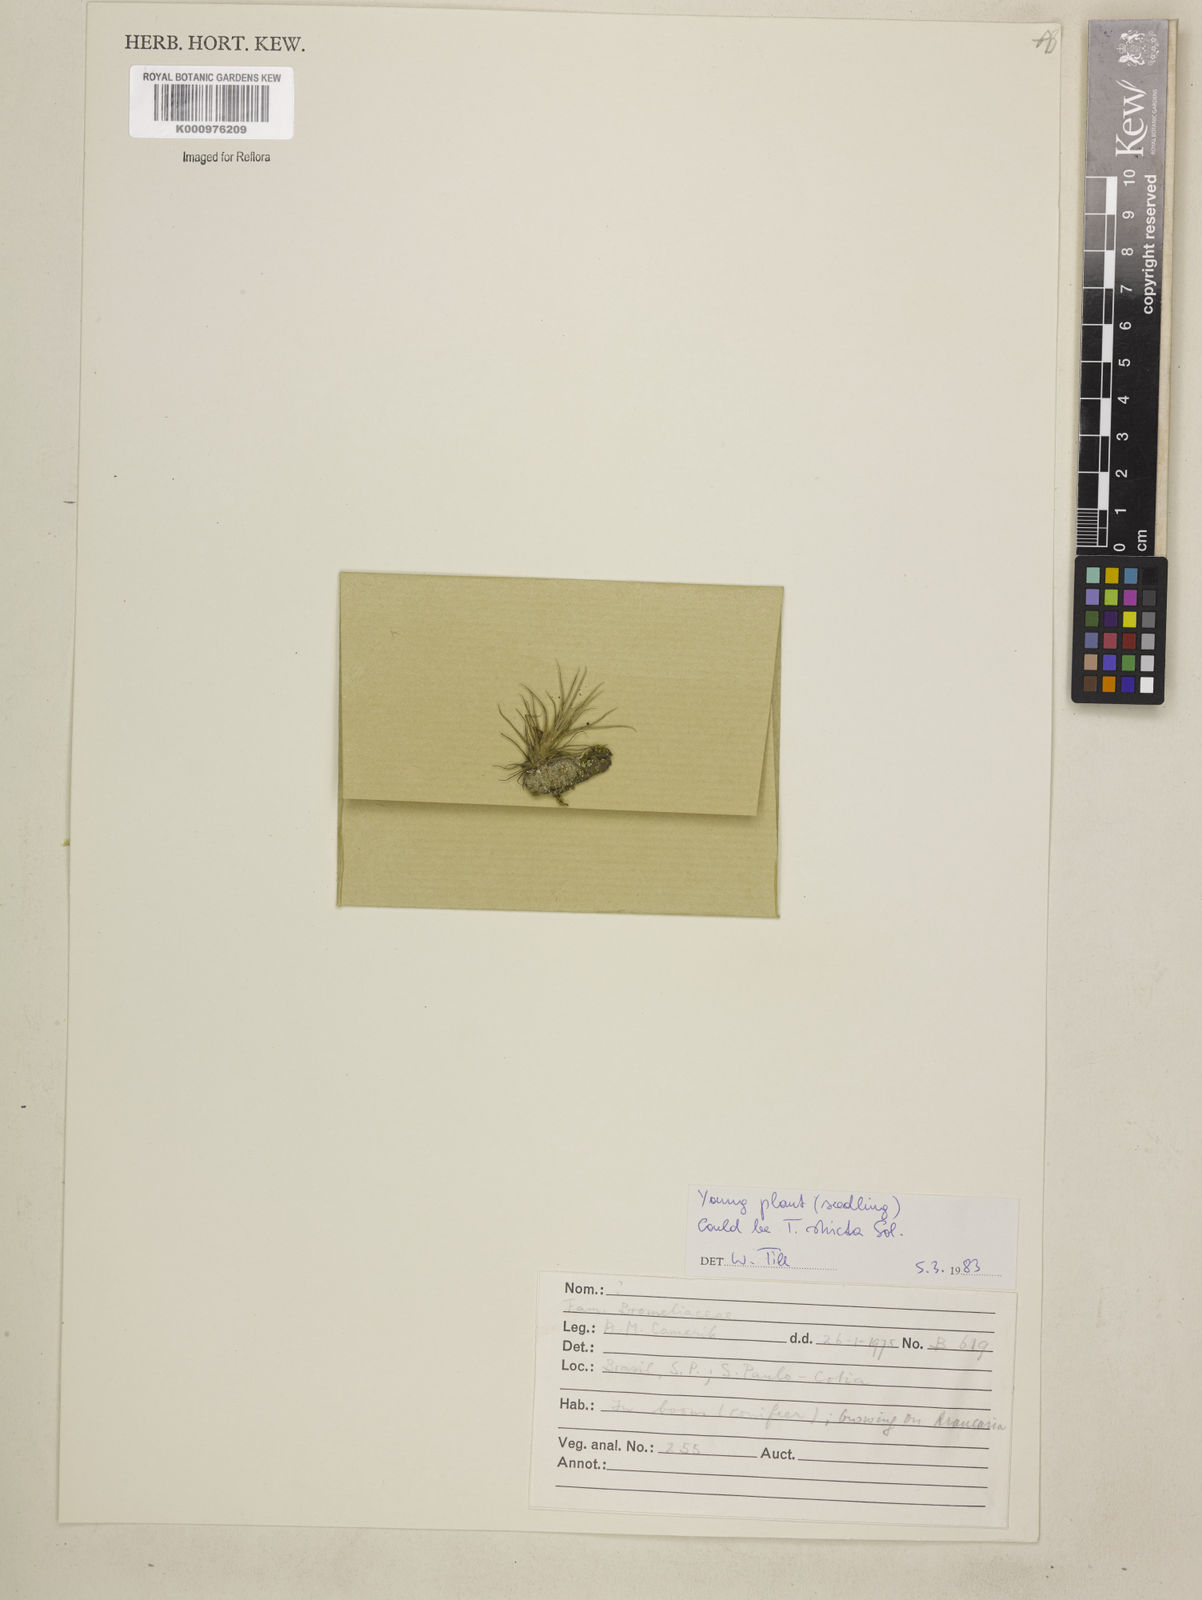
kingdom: Plantae
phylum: Tracheophyta
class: Liliopsida
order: Poales
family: Bromeliaceae
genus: Tillandsia
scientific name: Tillandsia
